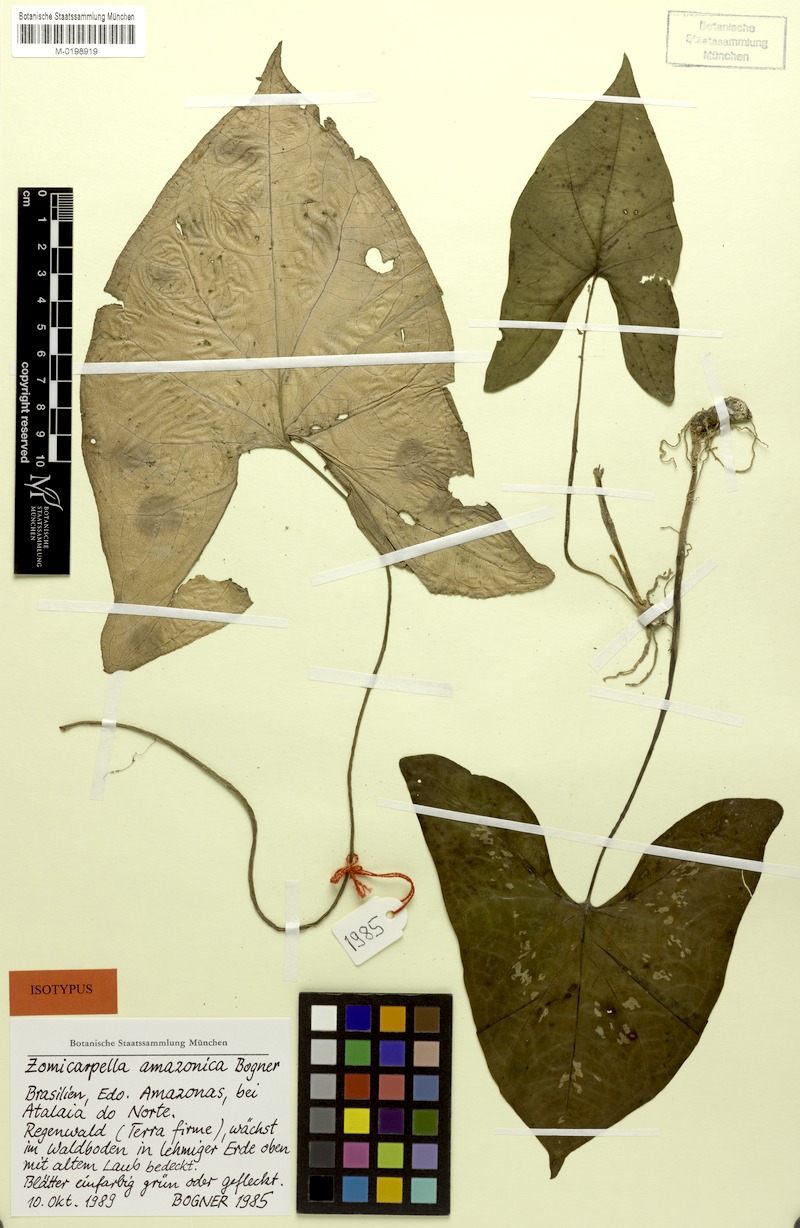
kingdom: Plantae
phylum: Tracheophyta
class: Liliopsida
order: Alismatales
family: Araceae
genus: Zomicarpella
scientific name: Zomicarpella amazonica
